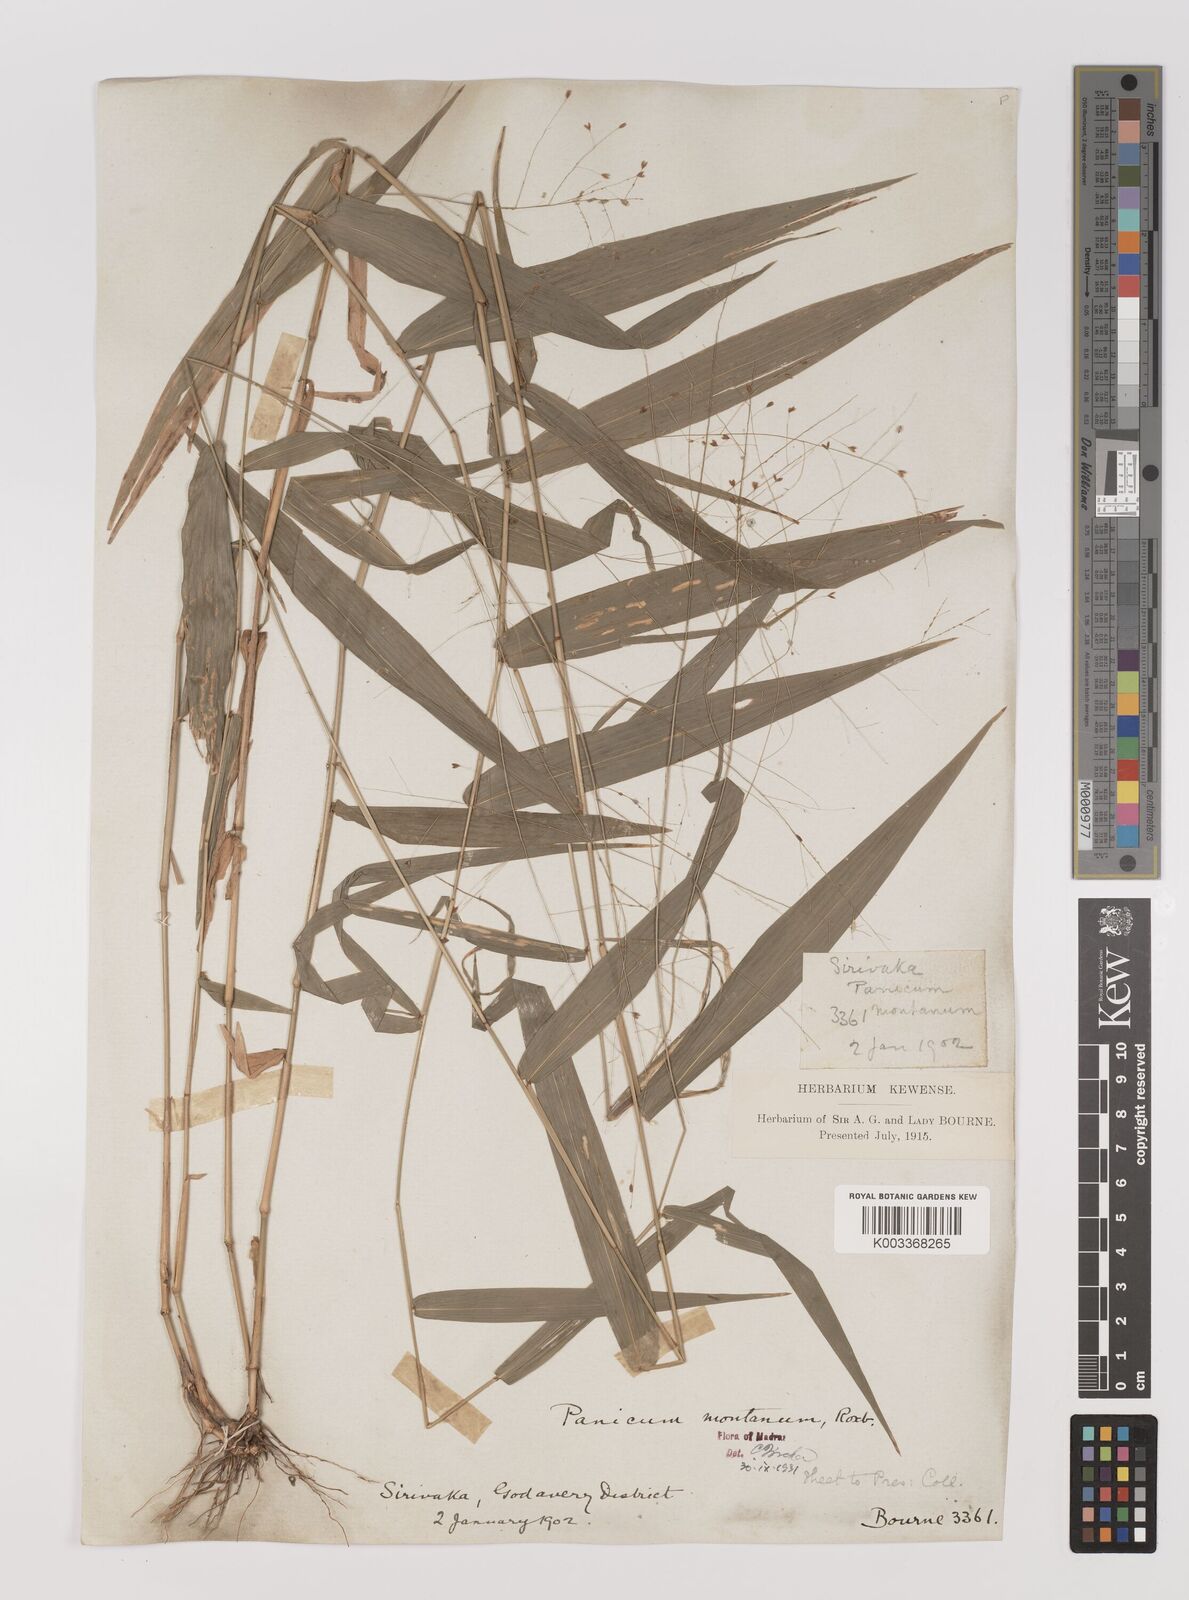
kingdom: Plantae
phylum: Tracheophyta
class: Liliopsida
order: Poales
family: Poaceae
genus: Panicum
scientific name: Panicum notatum
